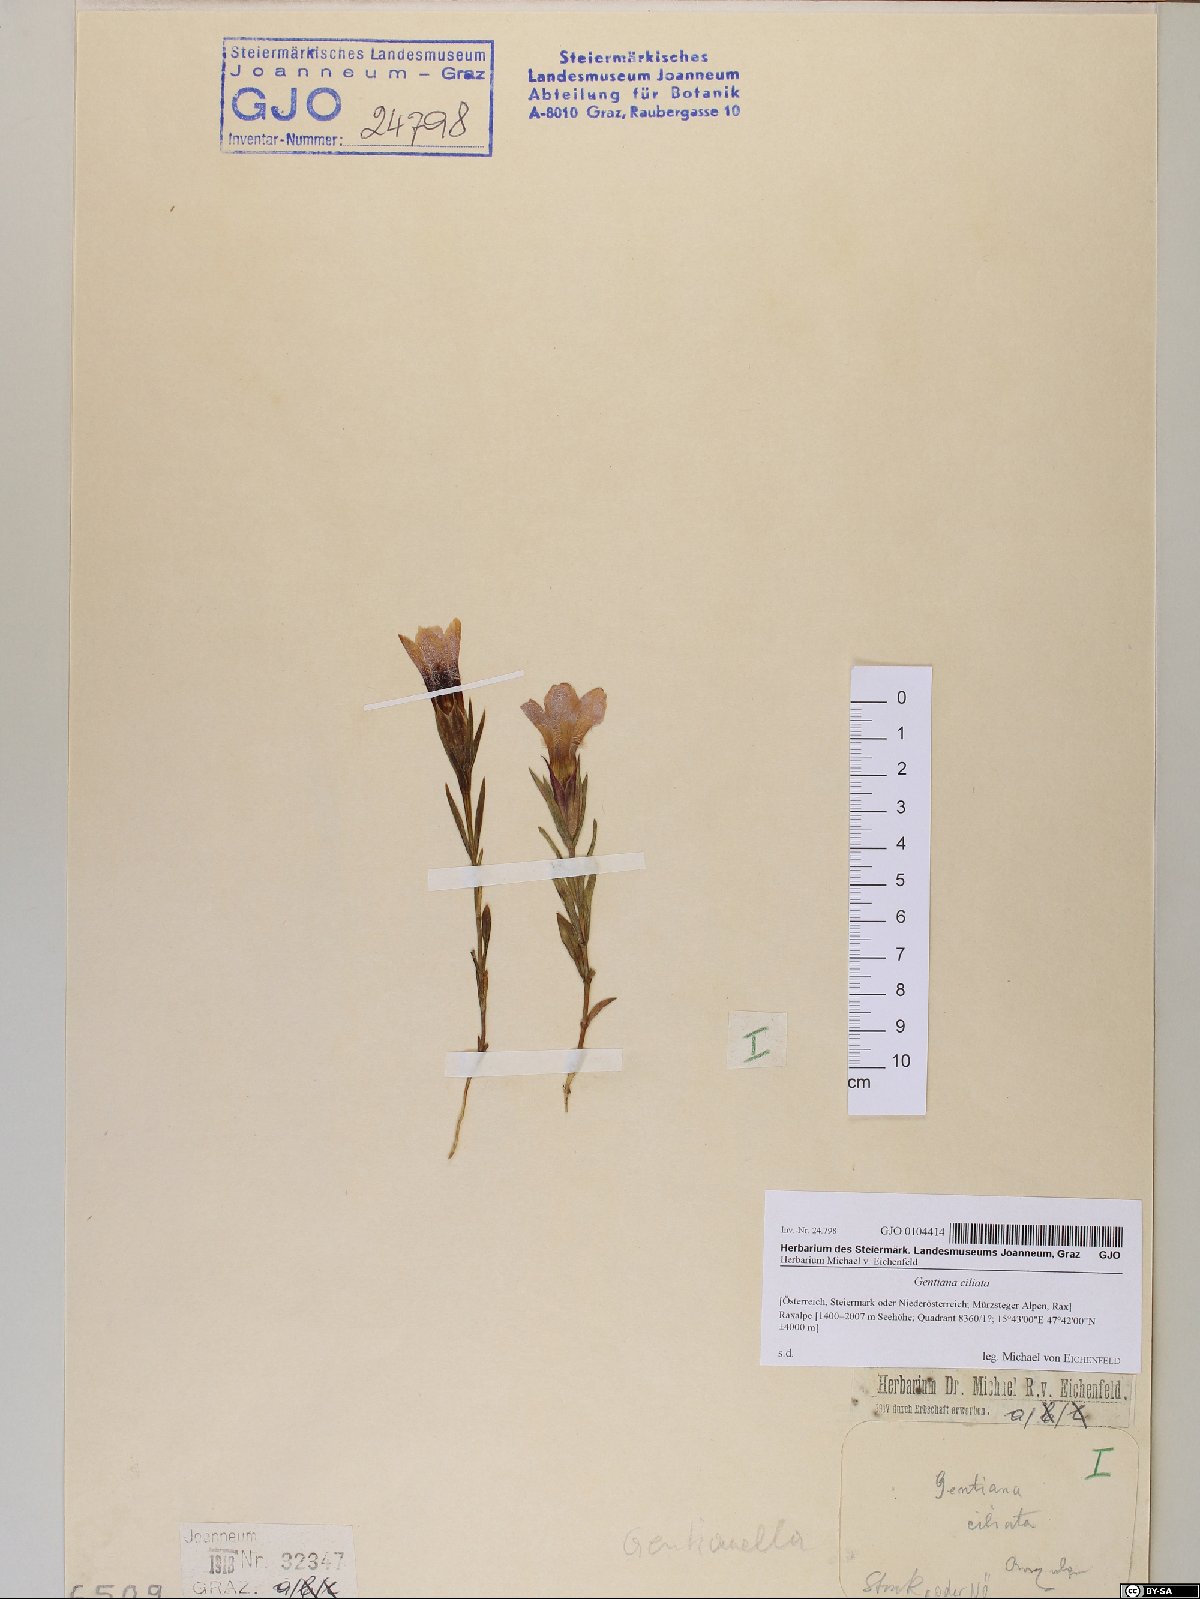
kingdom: Plantae
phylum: Tracheophyta
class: Magnoliopsida
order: Gentianales
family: Gentianaceae
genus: Gentianopsis
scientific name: Gentianopsis ciliata
